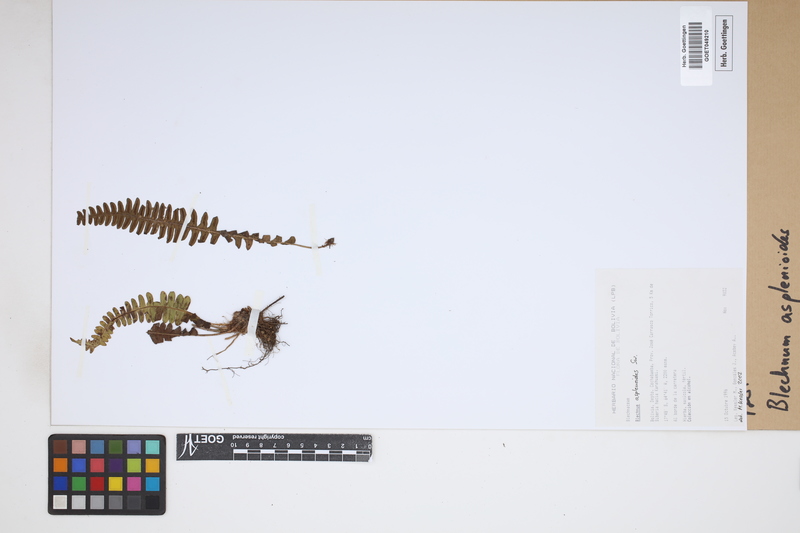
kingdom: Plantae
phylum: Tracheophyta
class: Polypodiopsida
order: Polypodiales
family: Blechnaceae
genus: Blechnum
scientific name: Blechnum asplenioides
